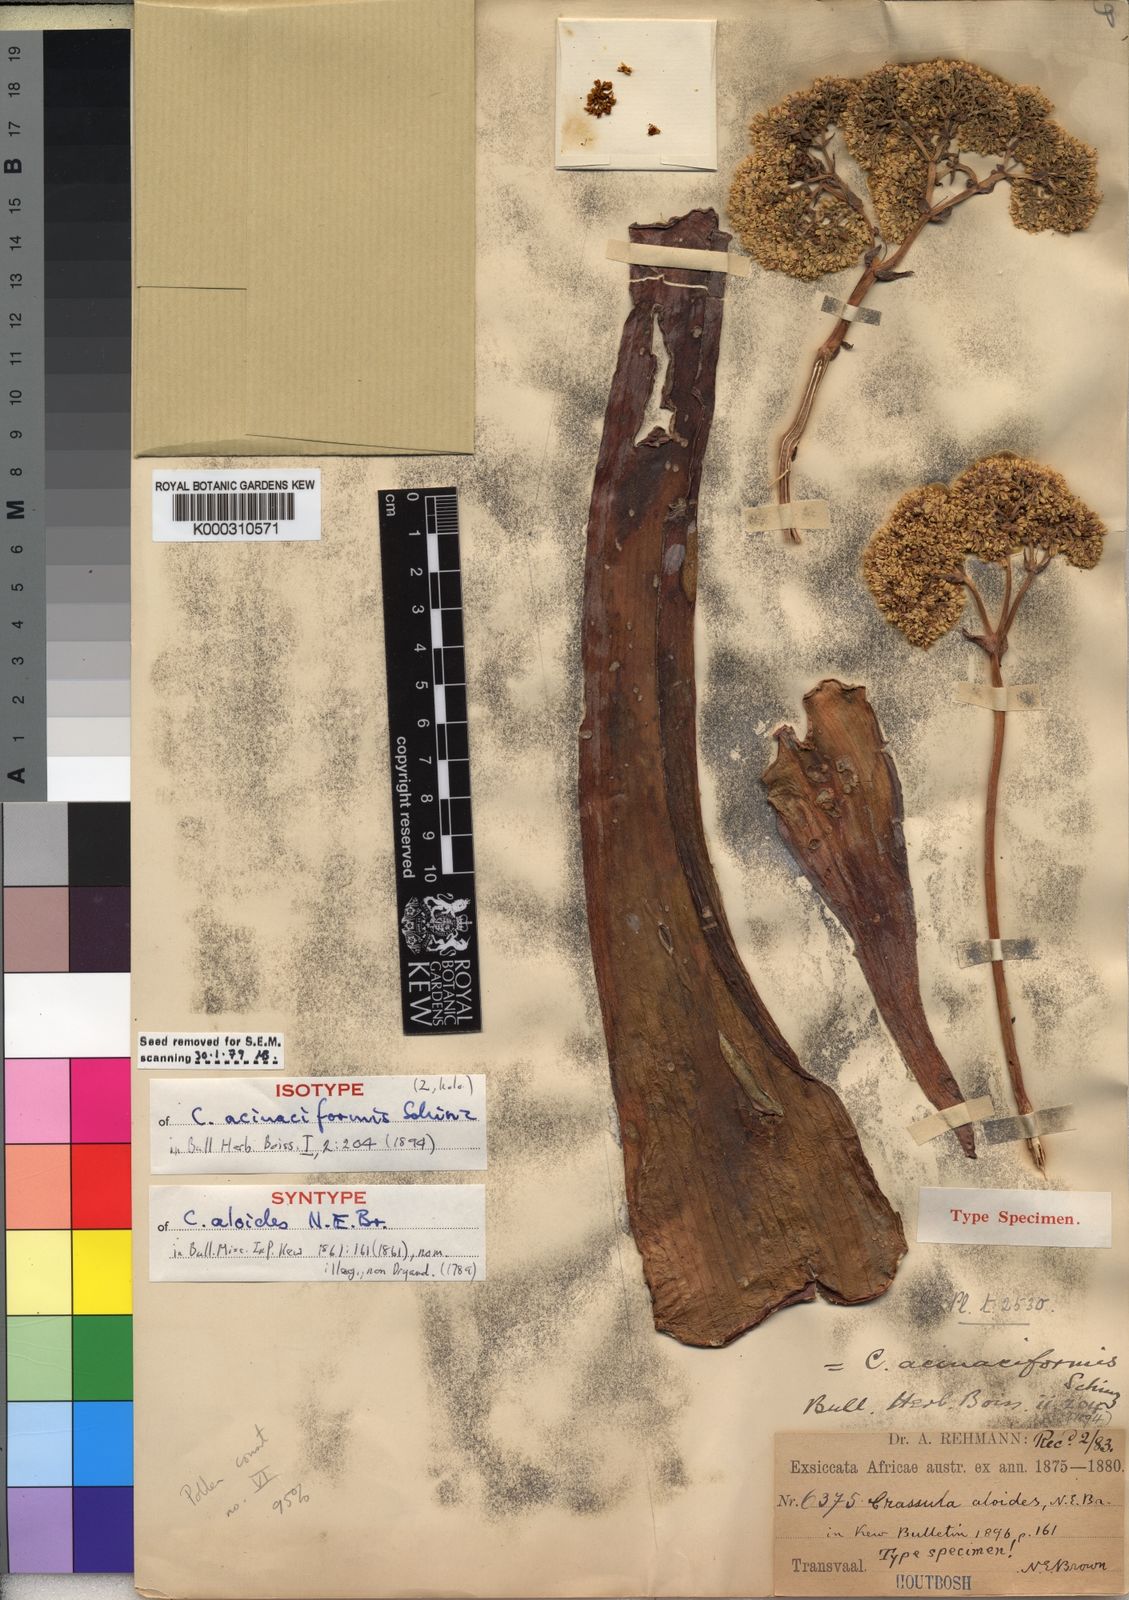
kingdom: Plantae
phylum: Tracheophyta
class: Magnoliopsida
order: Saxifragales
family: Crassulaceae
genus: Crassula
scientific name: Crassula acinaciformis
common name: Giant crassula
